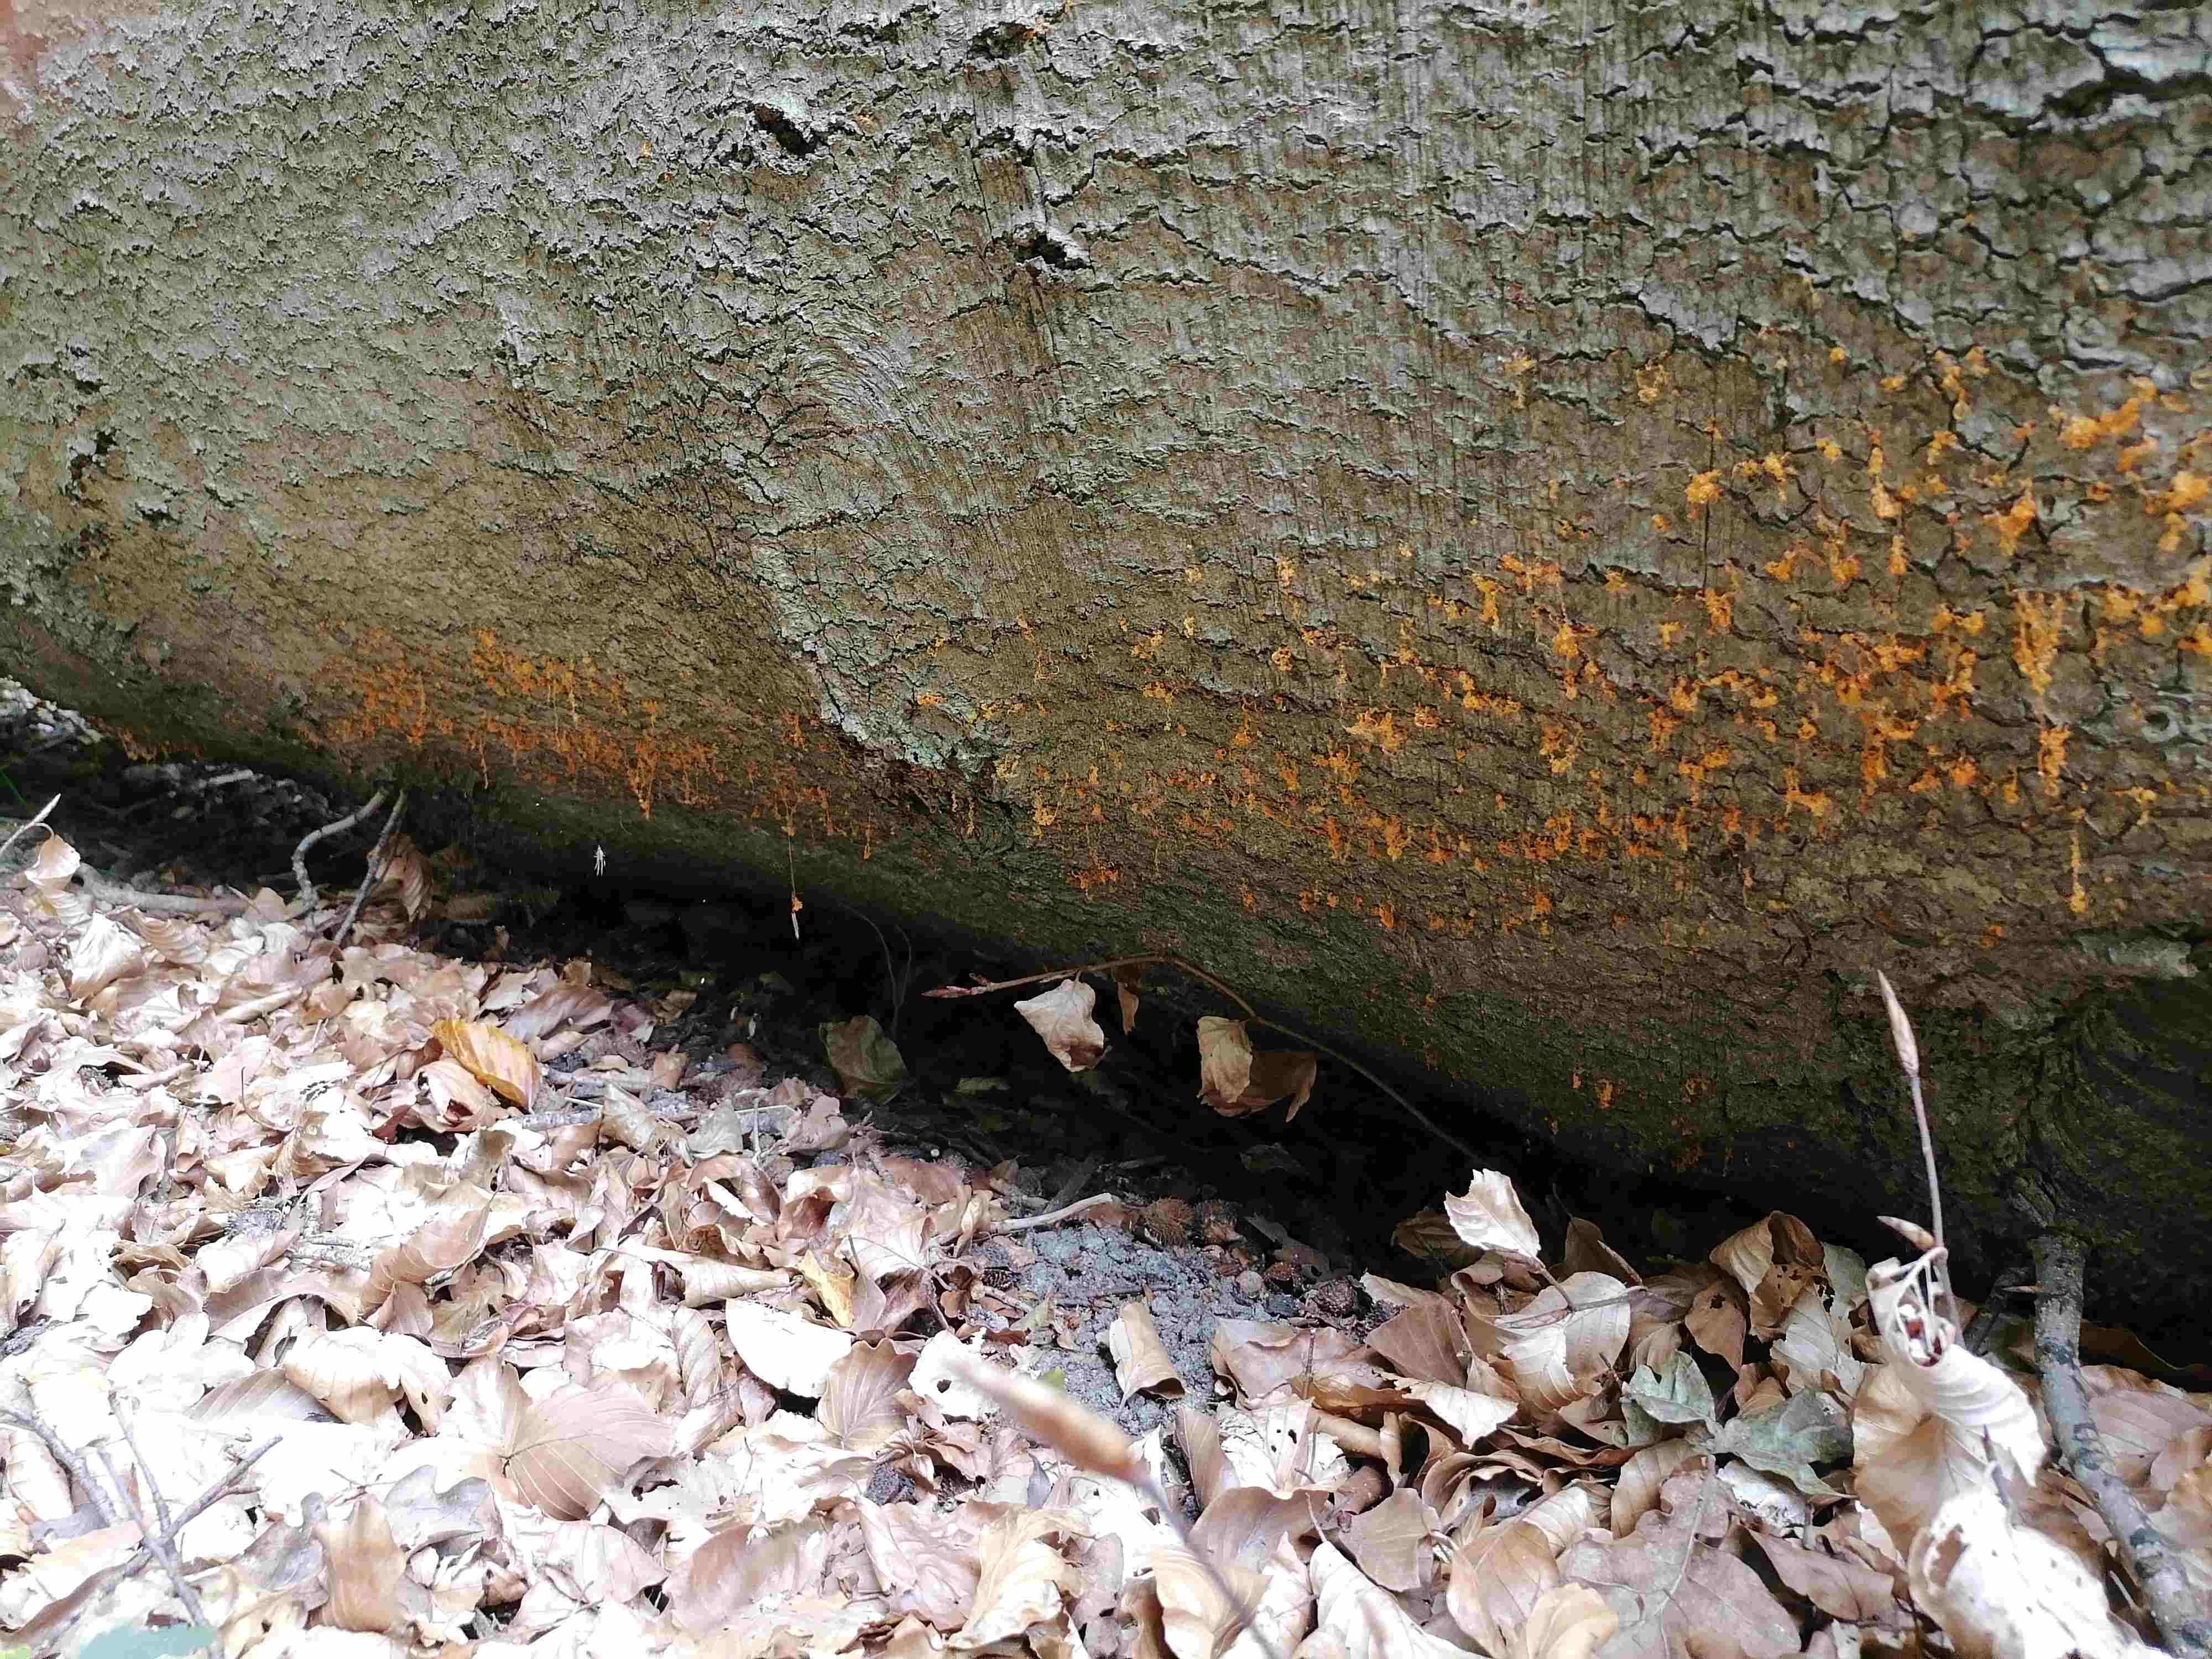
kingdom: Fungi
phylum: Ascomycota
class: Sordariomycetes
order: Xylariales
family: Diatrypaceae
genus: Eutypella
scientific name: Eutypella quaternata
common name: bøge-korsprik
